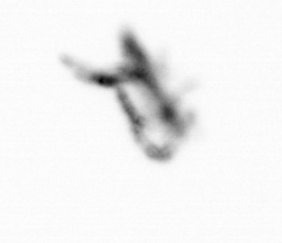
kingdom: Animalia
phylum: Arthropoda
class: Copepoda
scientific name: Copepoda
